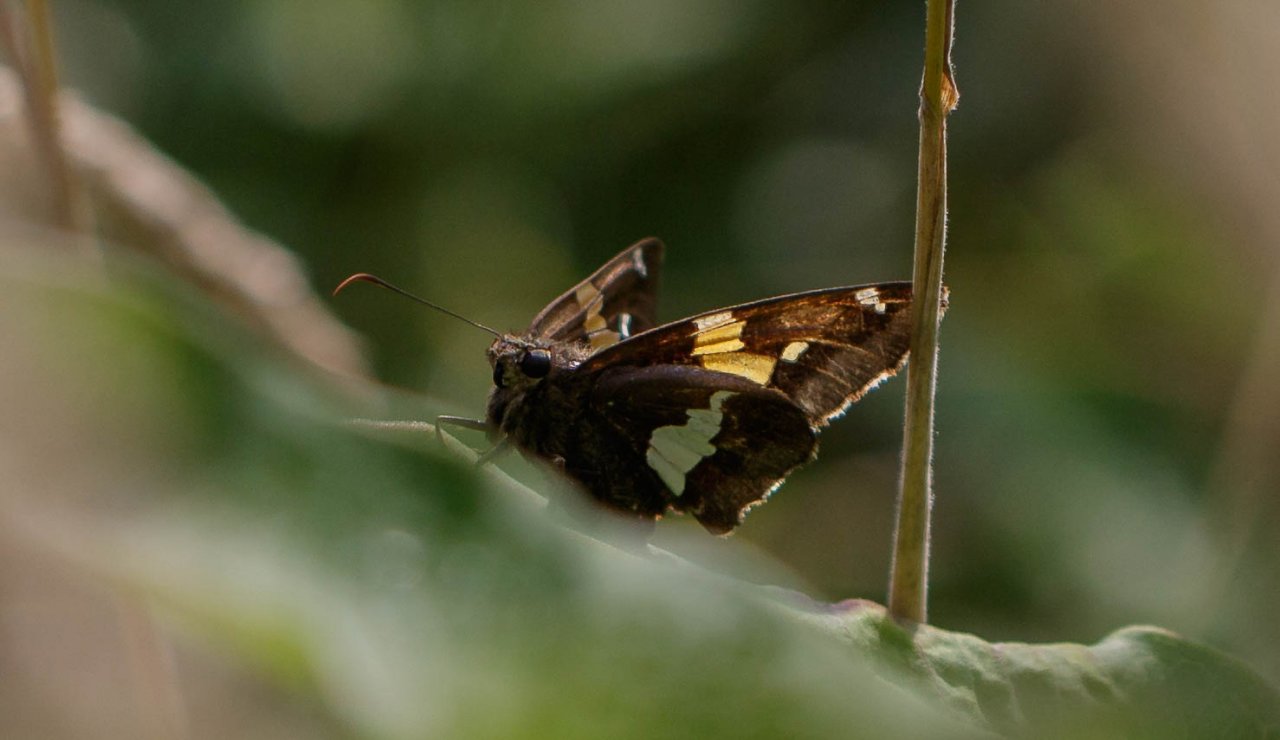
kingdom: Animalia
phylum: Arthropoda
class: Insecta
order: Lepidoptera
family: Hesperiidae
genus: Epargyreus
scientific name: Epargyreus clarus
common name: Silver-spotted Skipper
